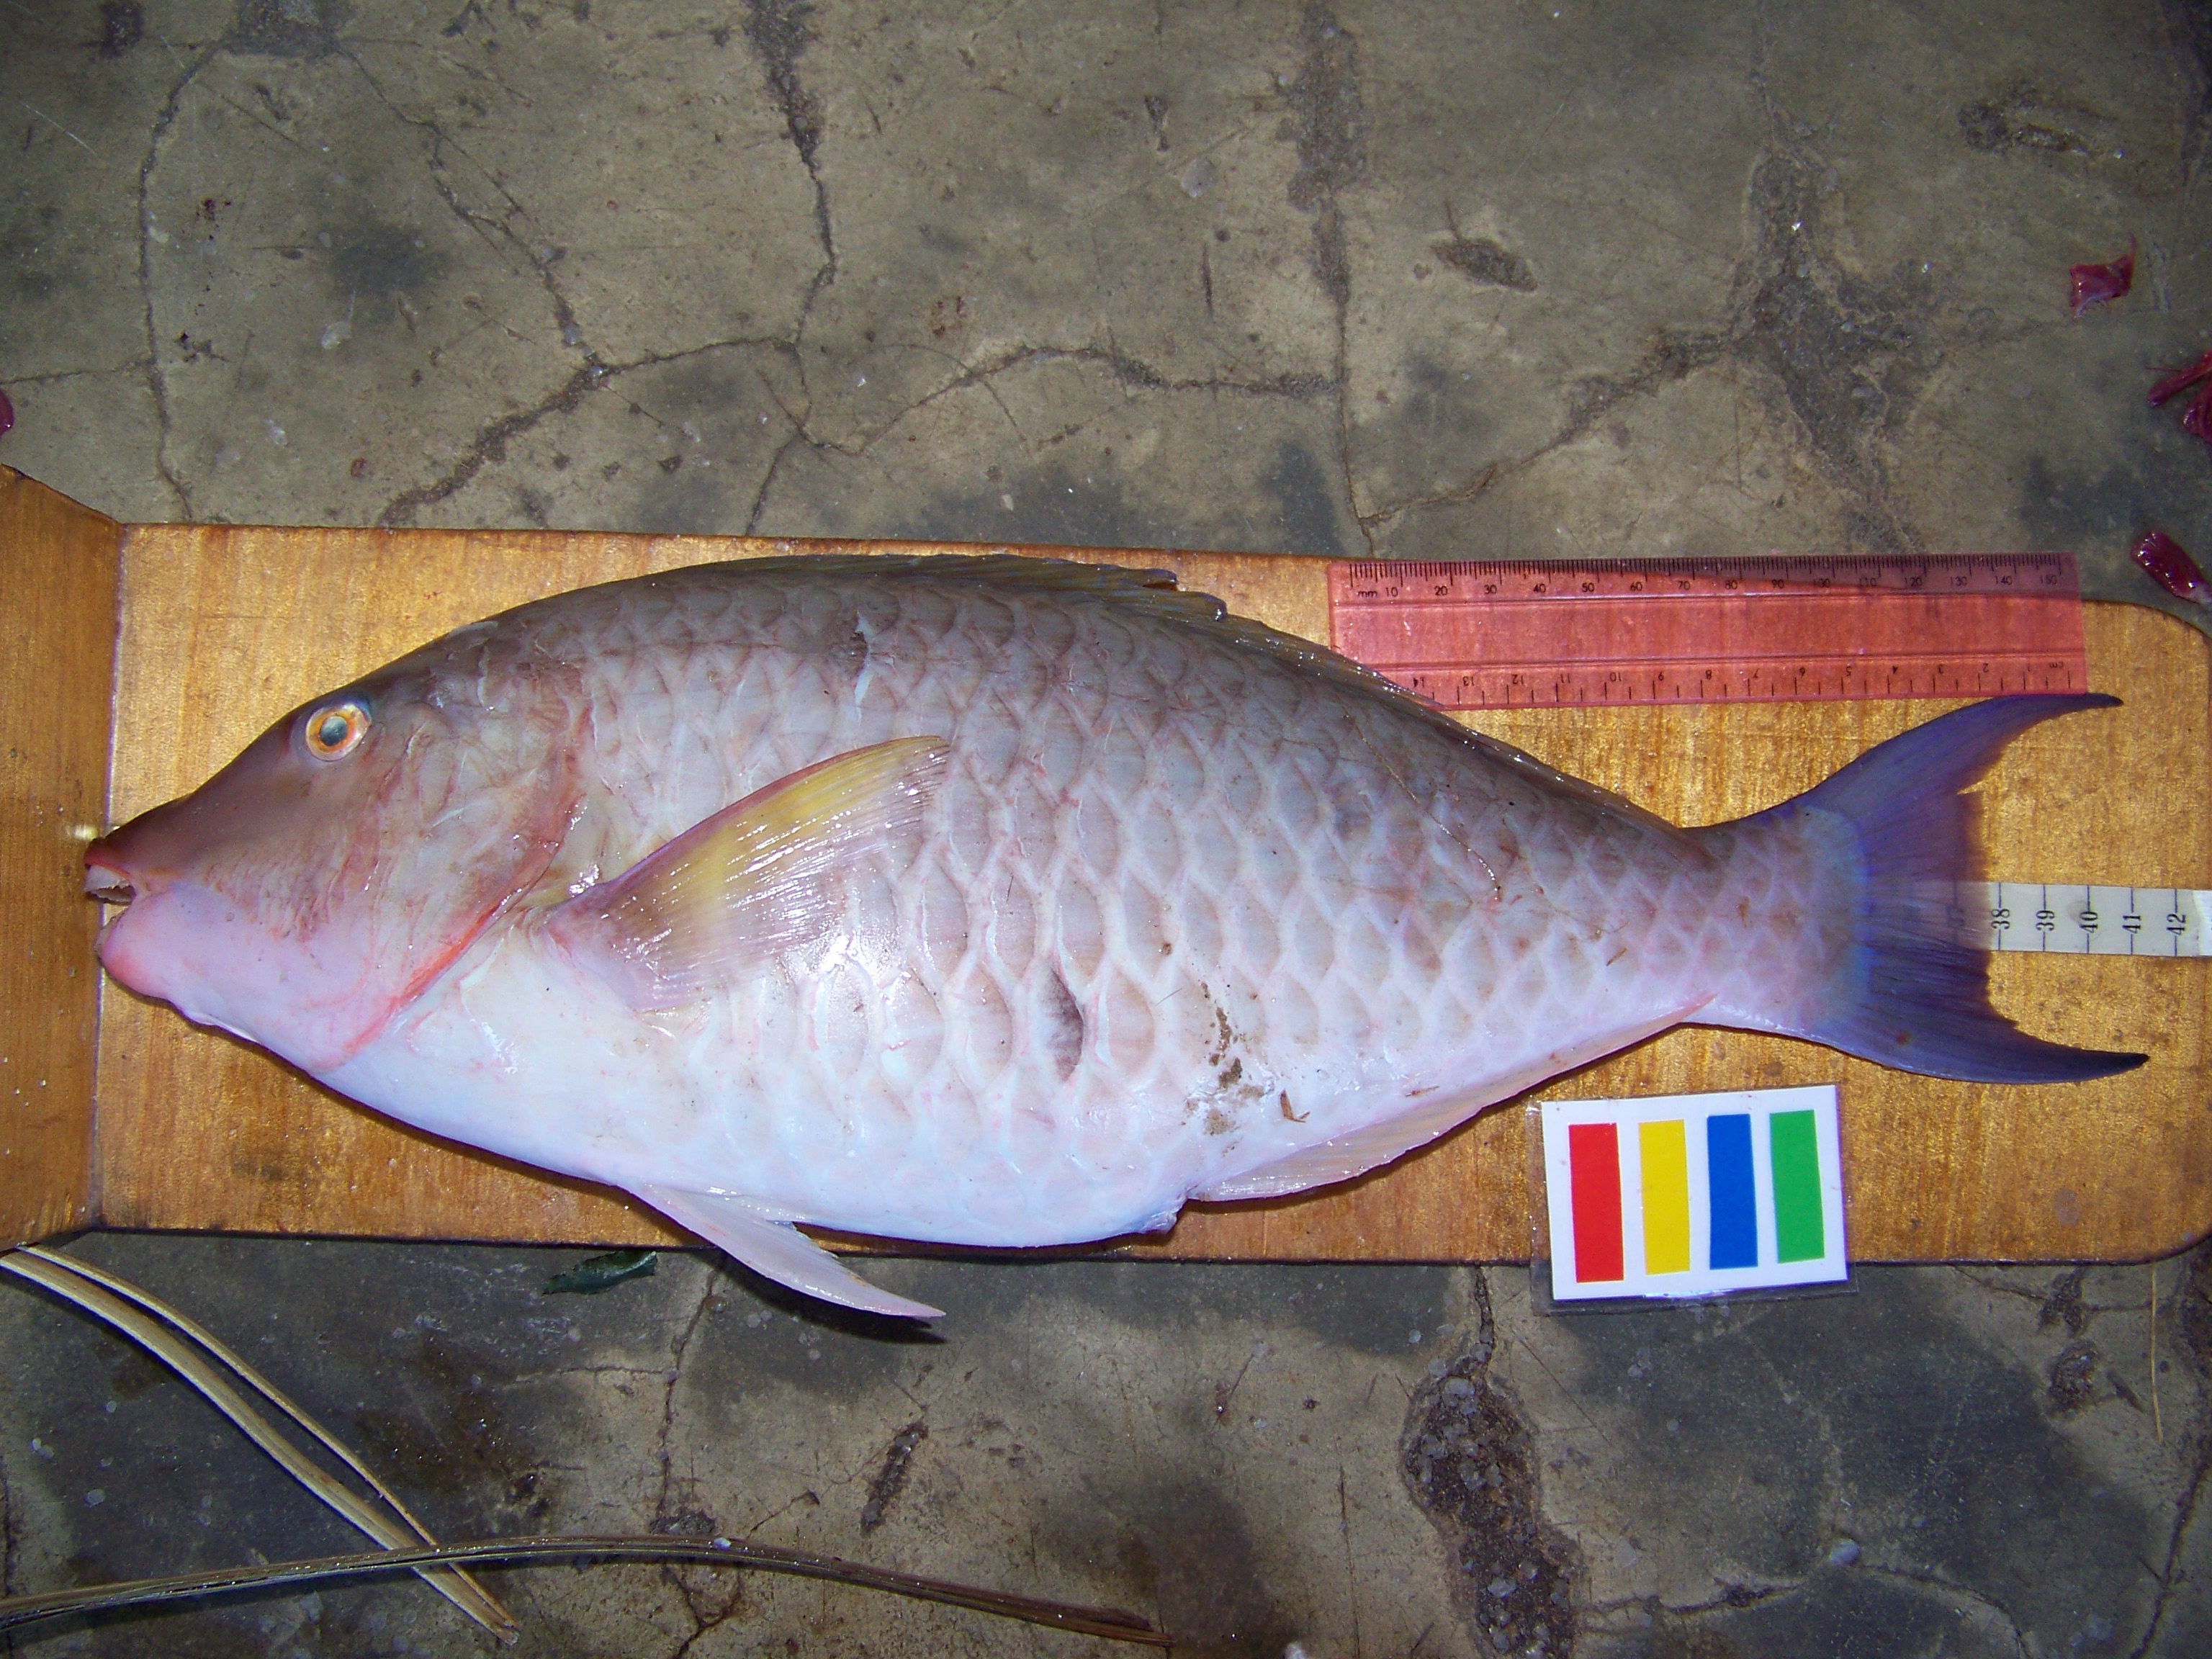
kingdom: Animalia
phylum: Chordata
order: Perciformes
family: Scaridae
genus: Hipposcarus
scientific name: Hipposcarus harid
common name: Candelamoa parrotfish
